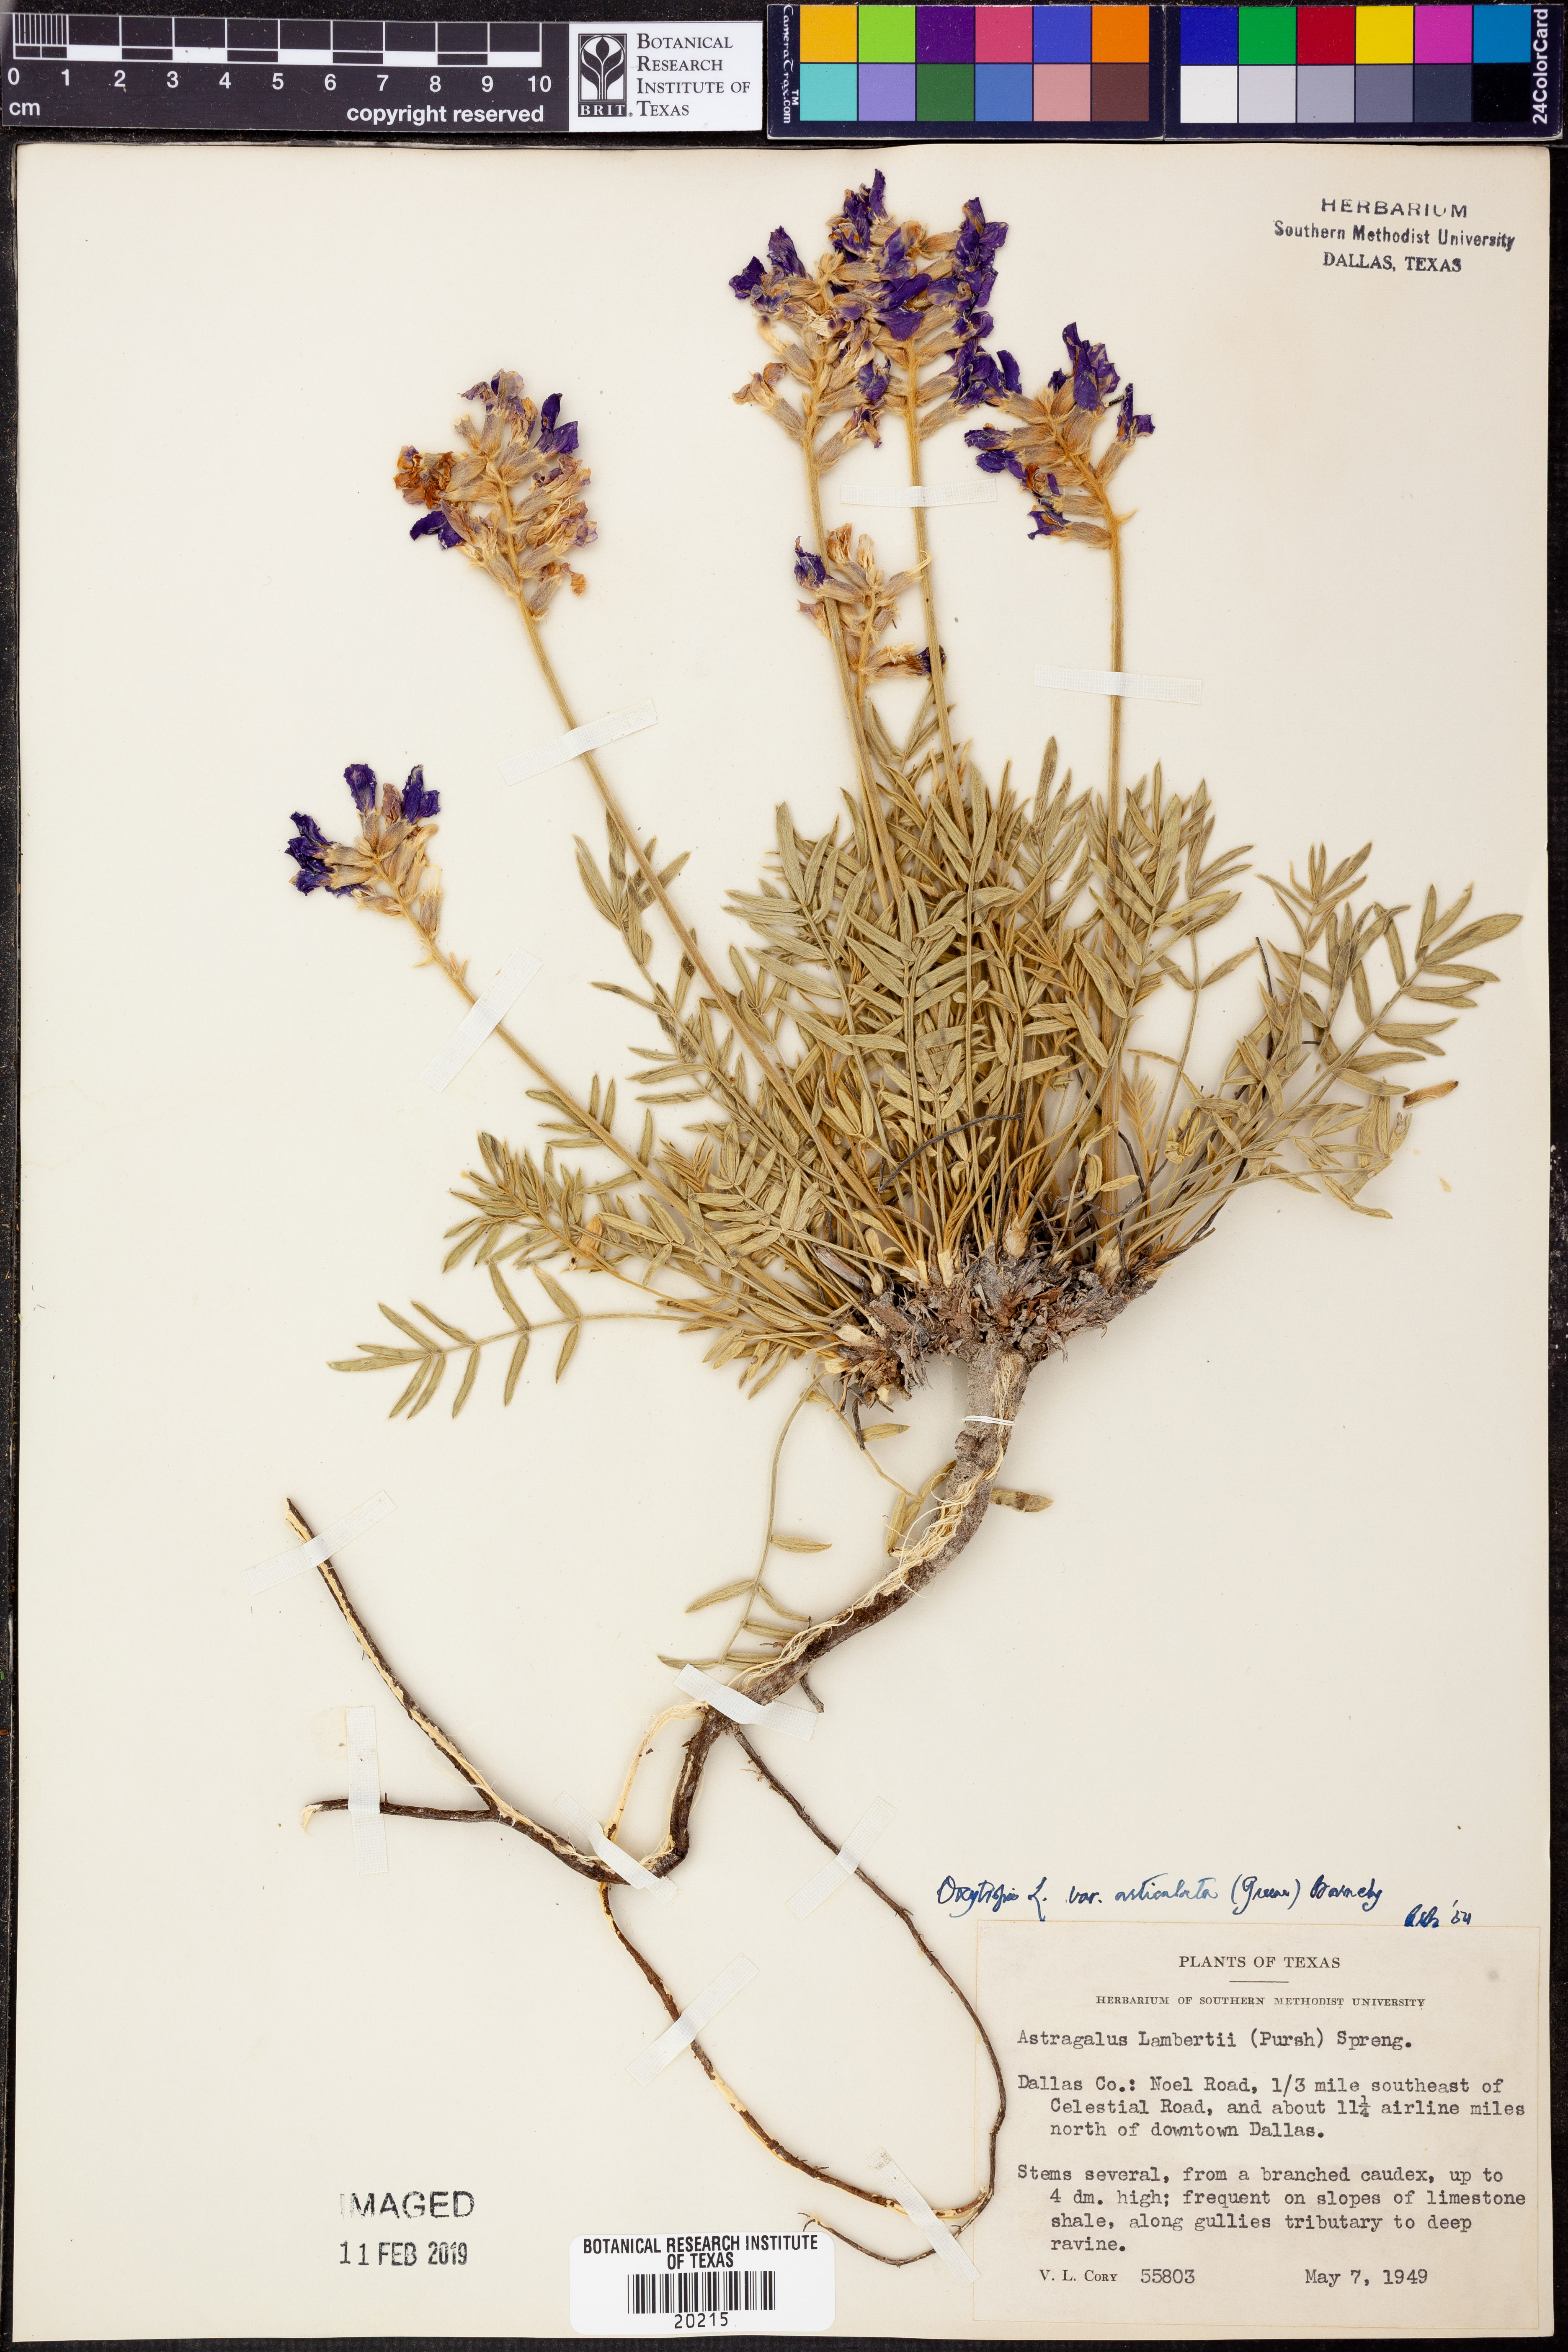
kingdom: Plantae
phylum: Tracheophyta
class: Magnoliopsida
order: Fabales
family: Fabaceae
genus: Oxytropis
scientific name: Oxytropis lambertii
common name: Purple locoweed
